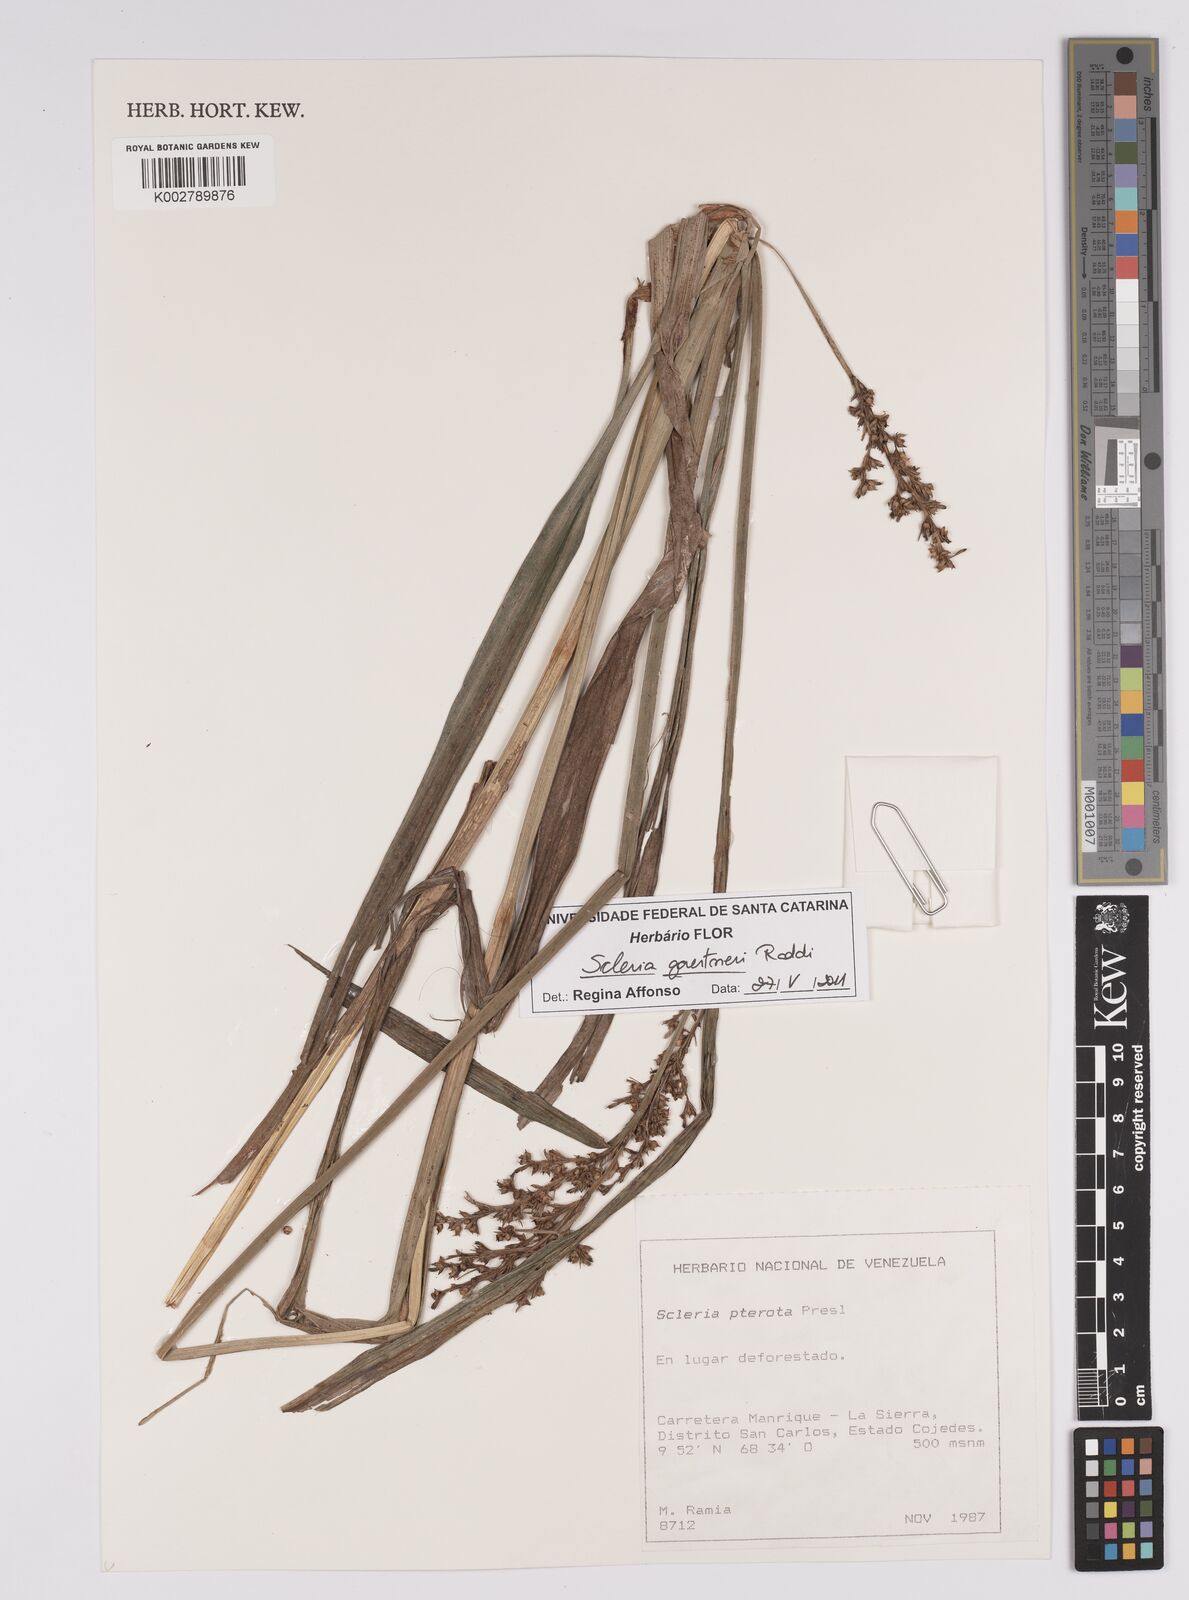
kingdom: Plantae
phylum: Tracheophyta
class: Liliopsida
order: Poales
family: Cyperaceae
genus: Scleria
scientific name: Scleria gaertneri
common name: Cortadera blanca
